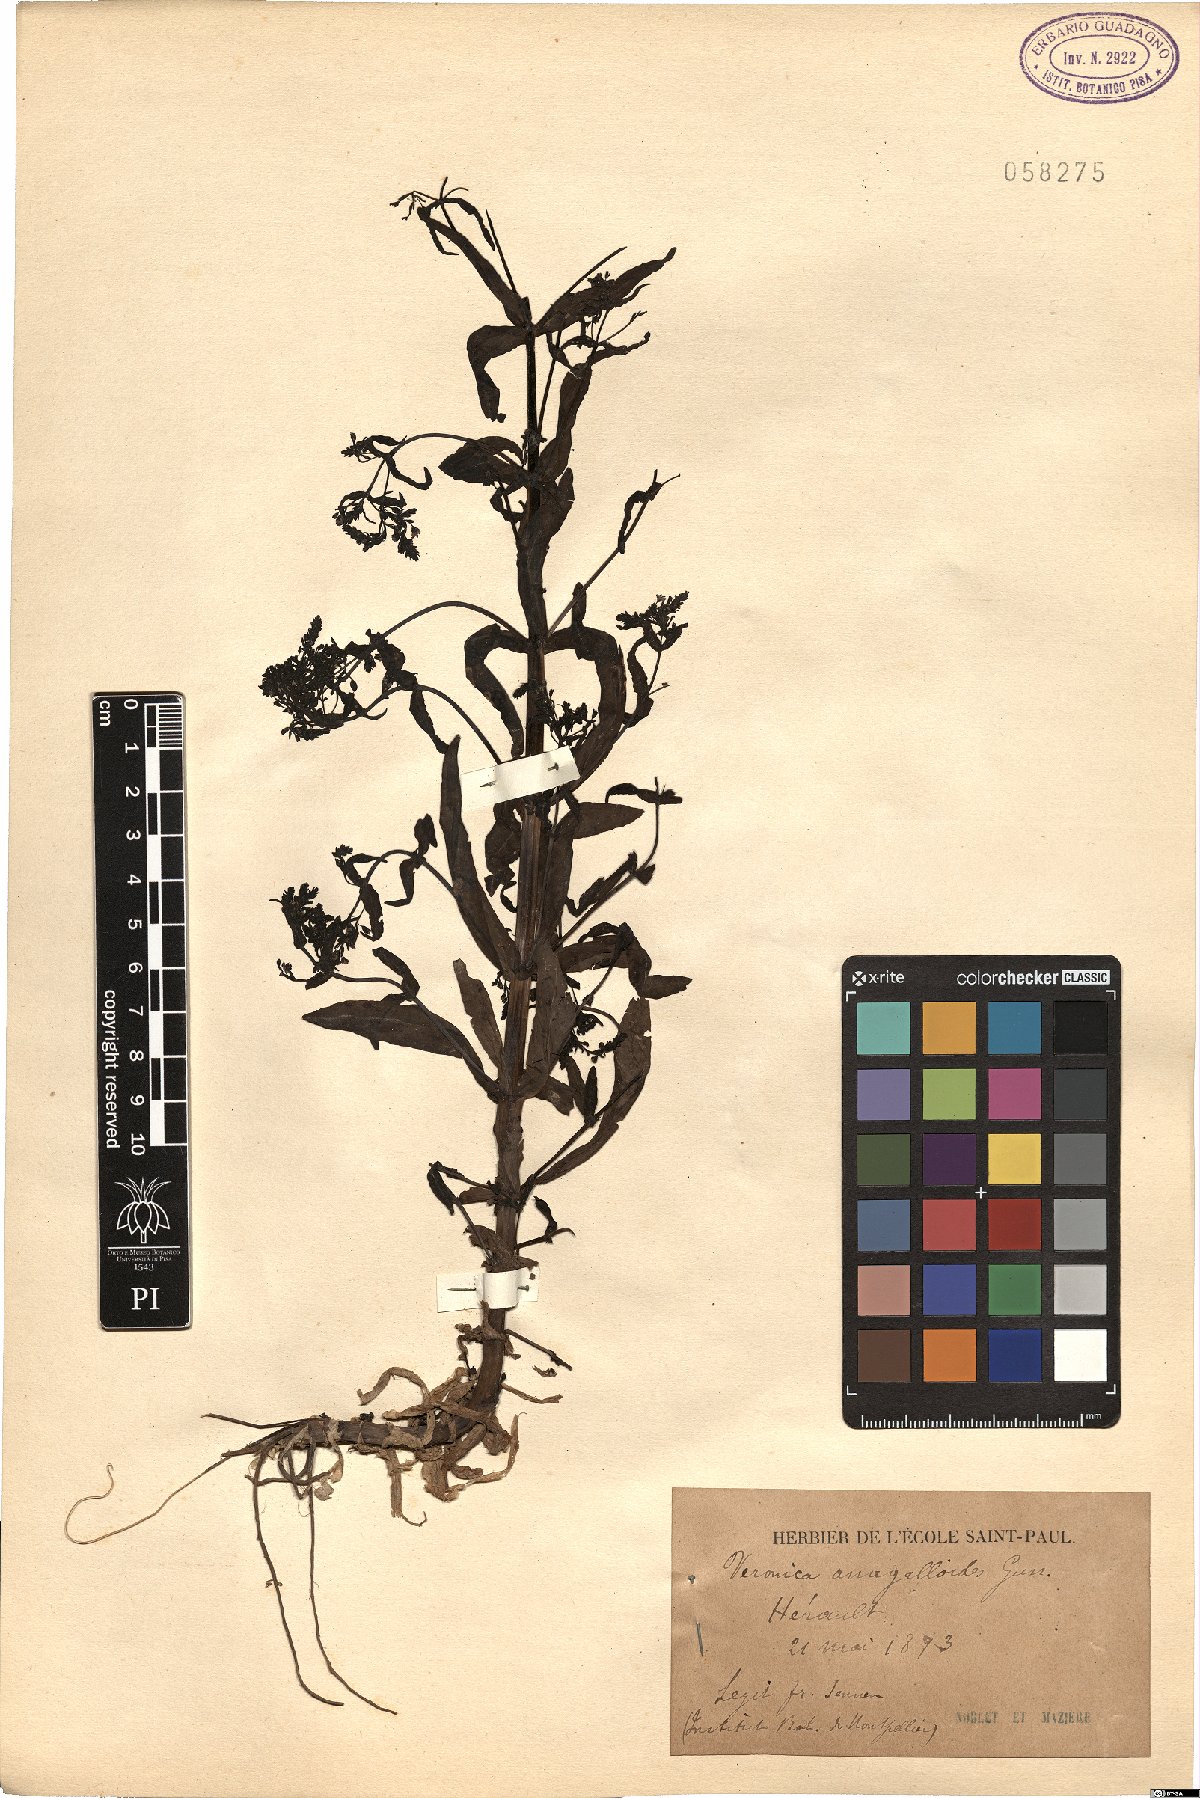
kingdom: Plantae
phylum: Tracheophyta
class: Magnoliopsida
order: Lamiales
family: Plantaginaceae
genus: Veronica
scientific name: Veronica anagalloides
